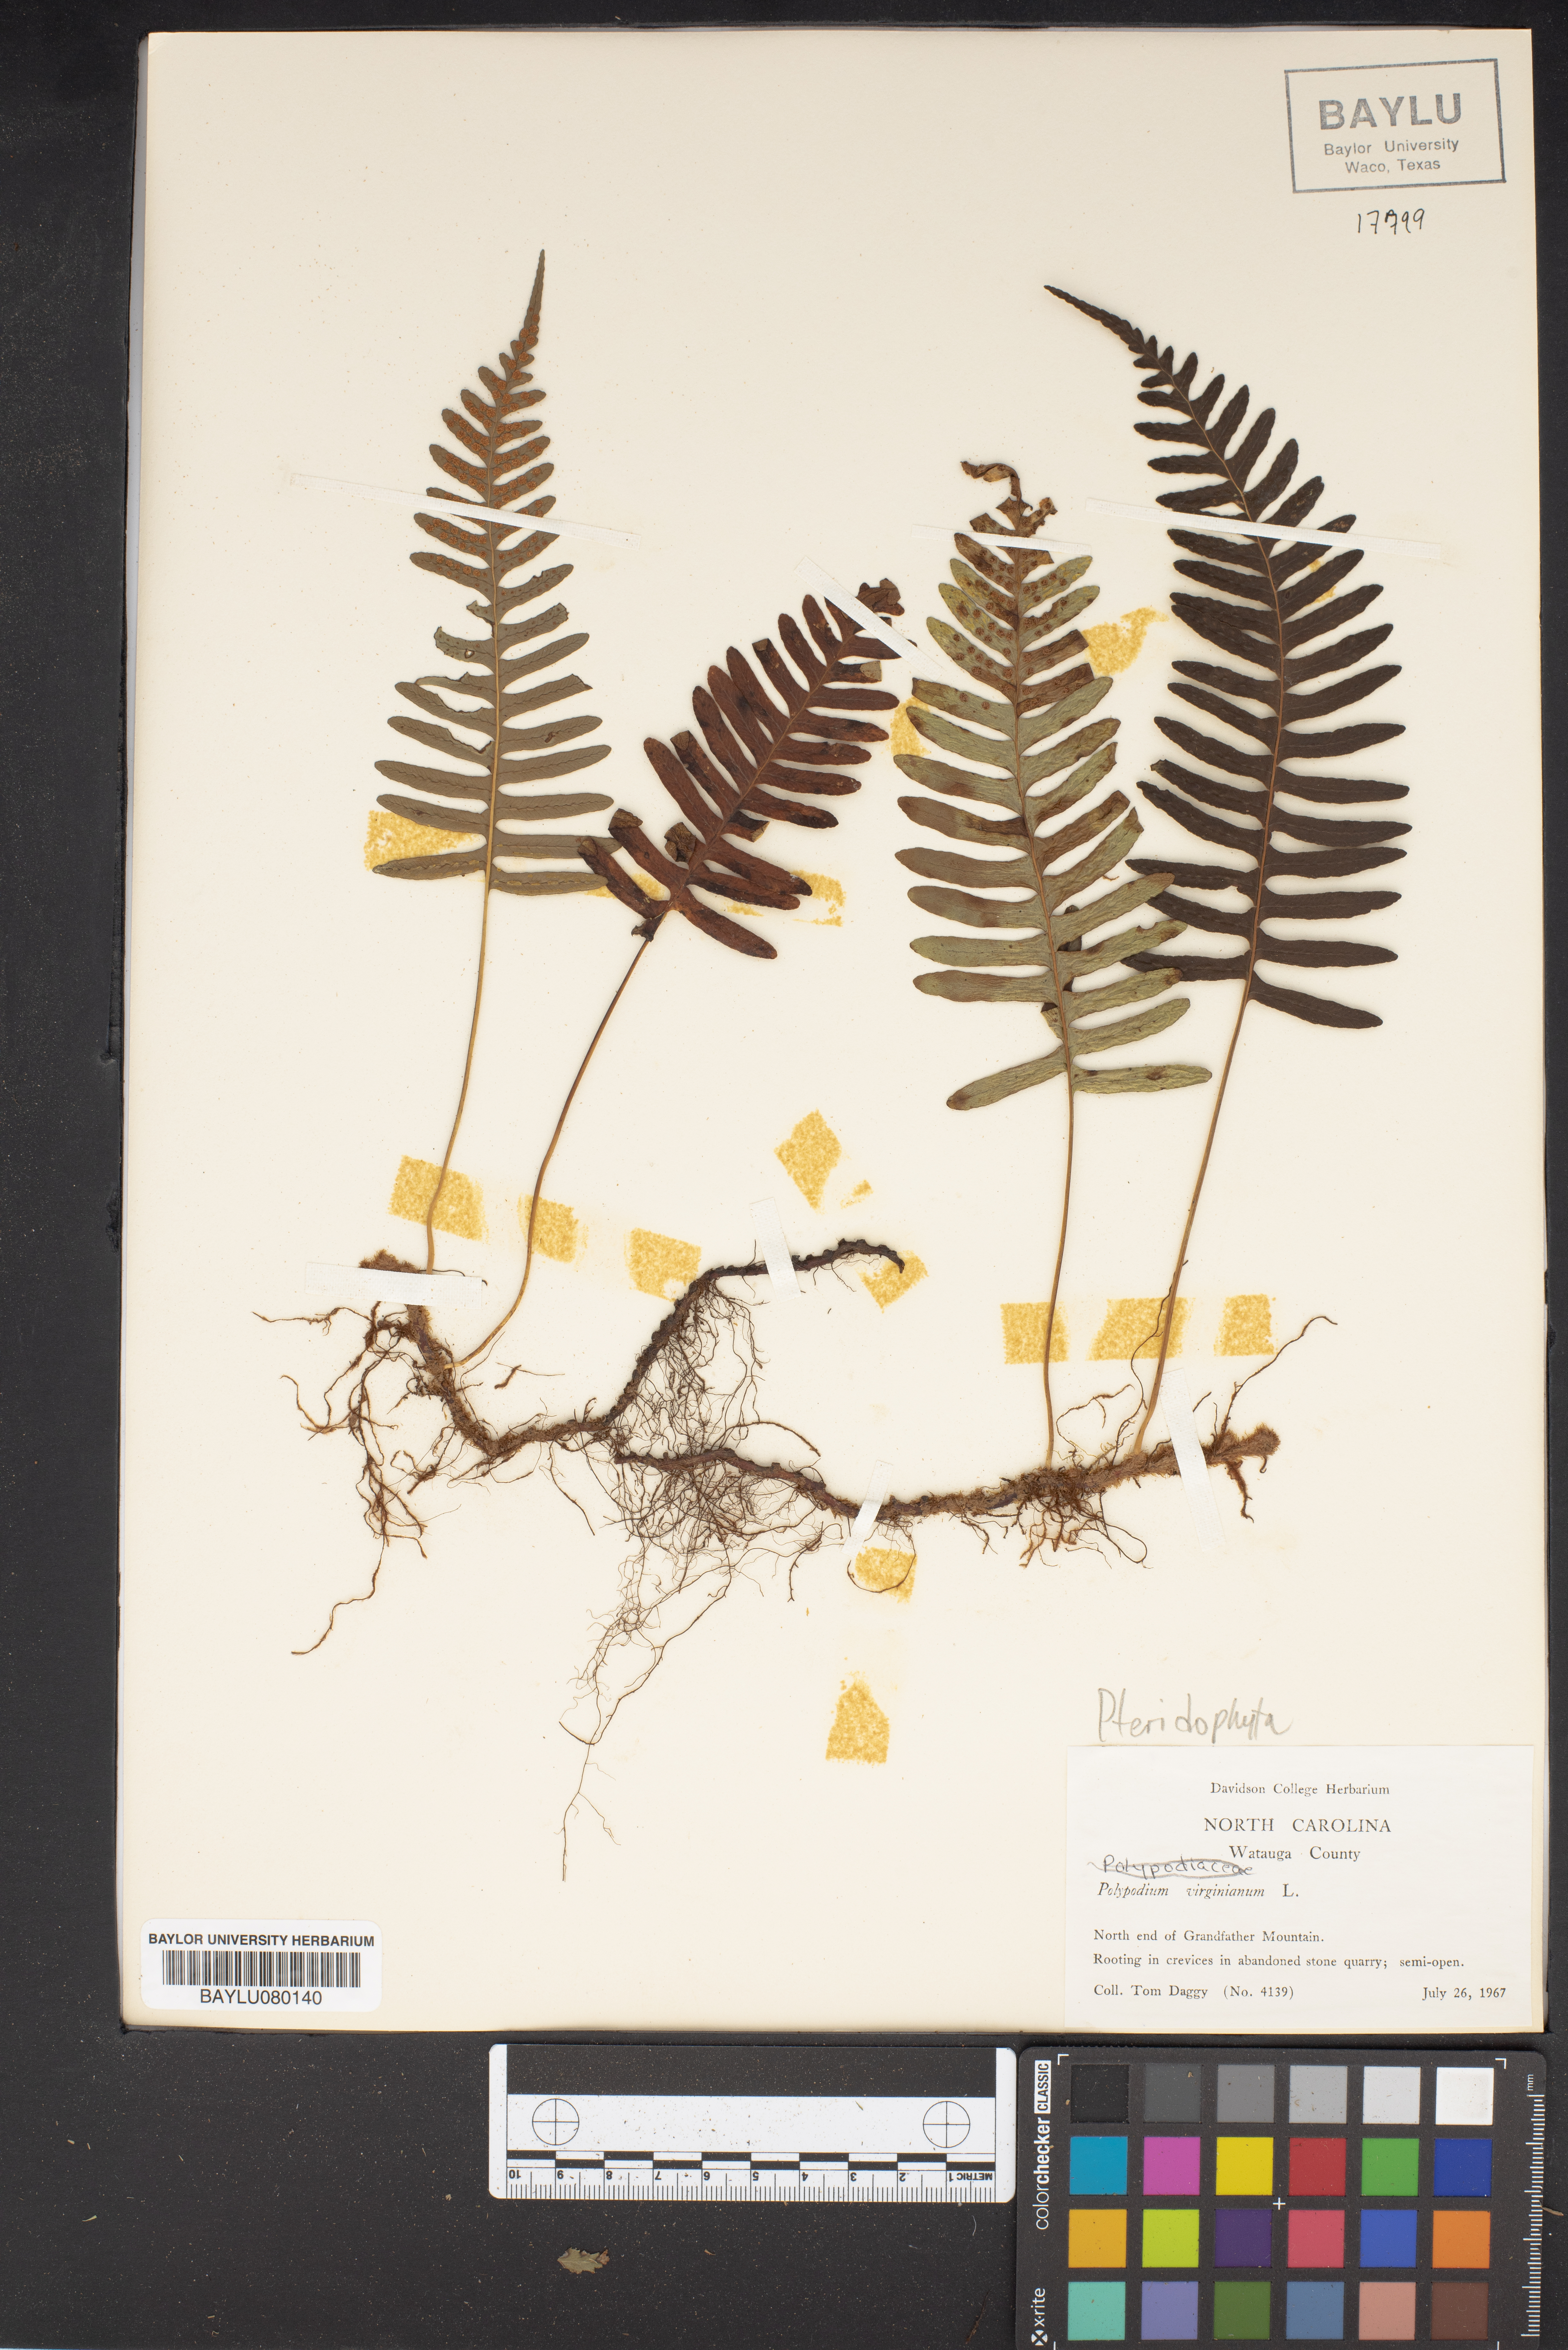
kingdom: Plantae
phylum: Tracheophyta
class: Polypodiopsida
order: Polypodiales
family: Polypodiaceae
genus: Polypodium
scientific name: Polypodium virginianum
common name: American wall fern
